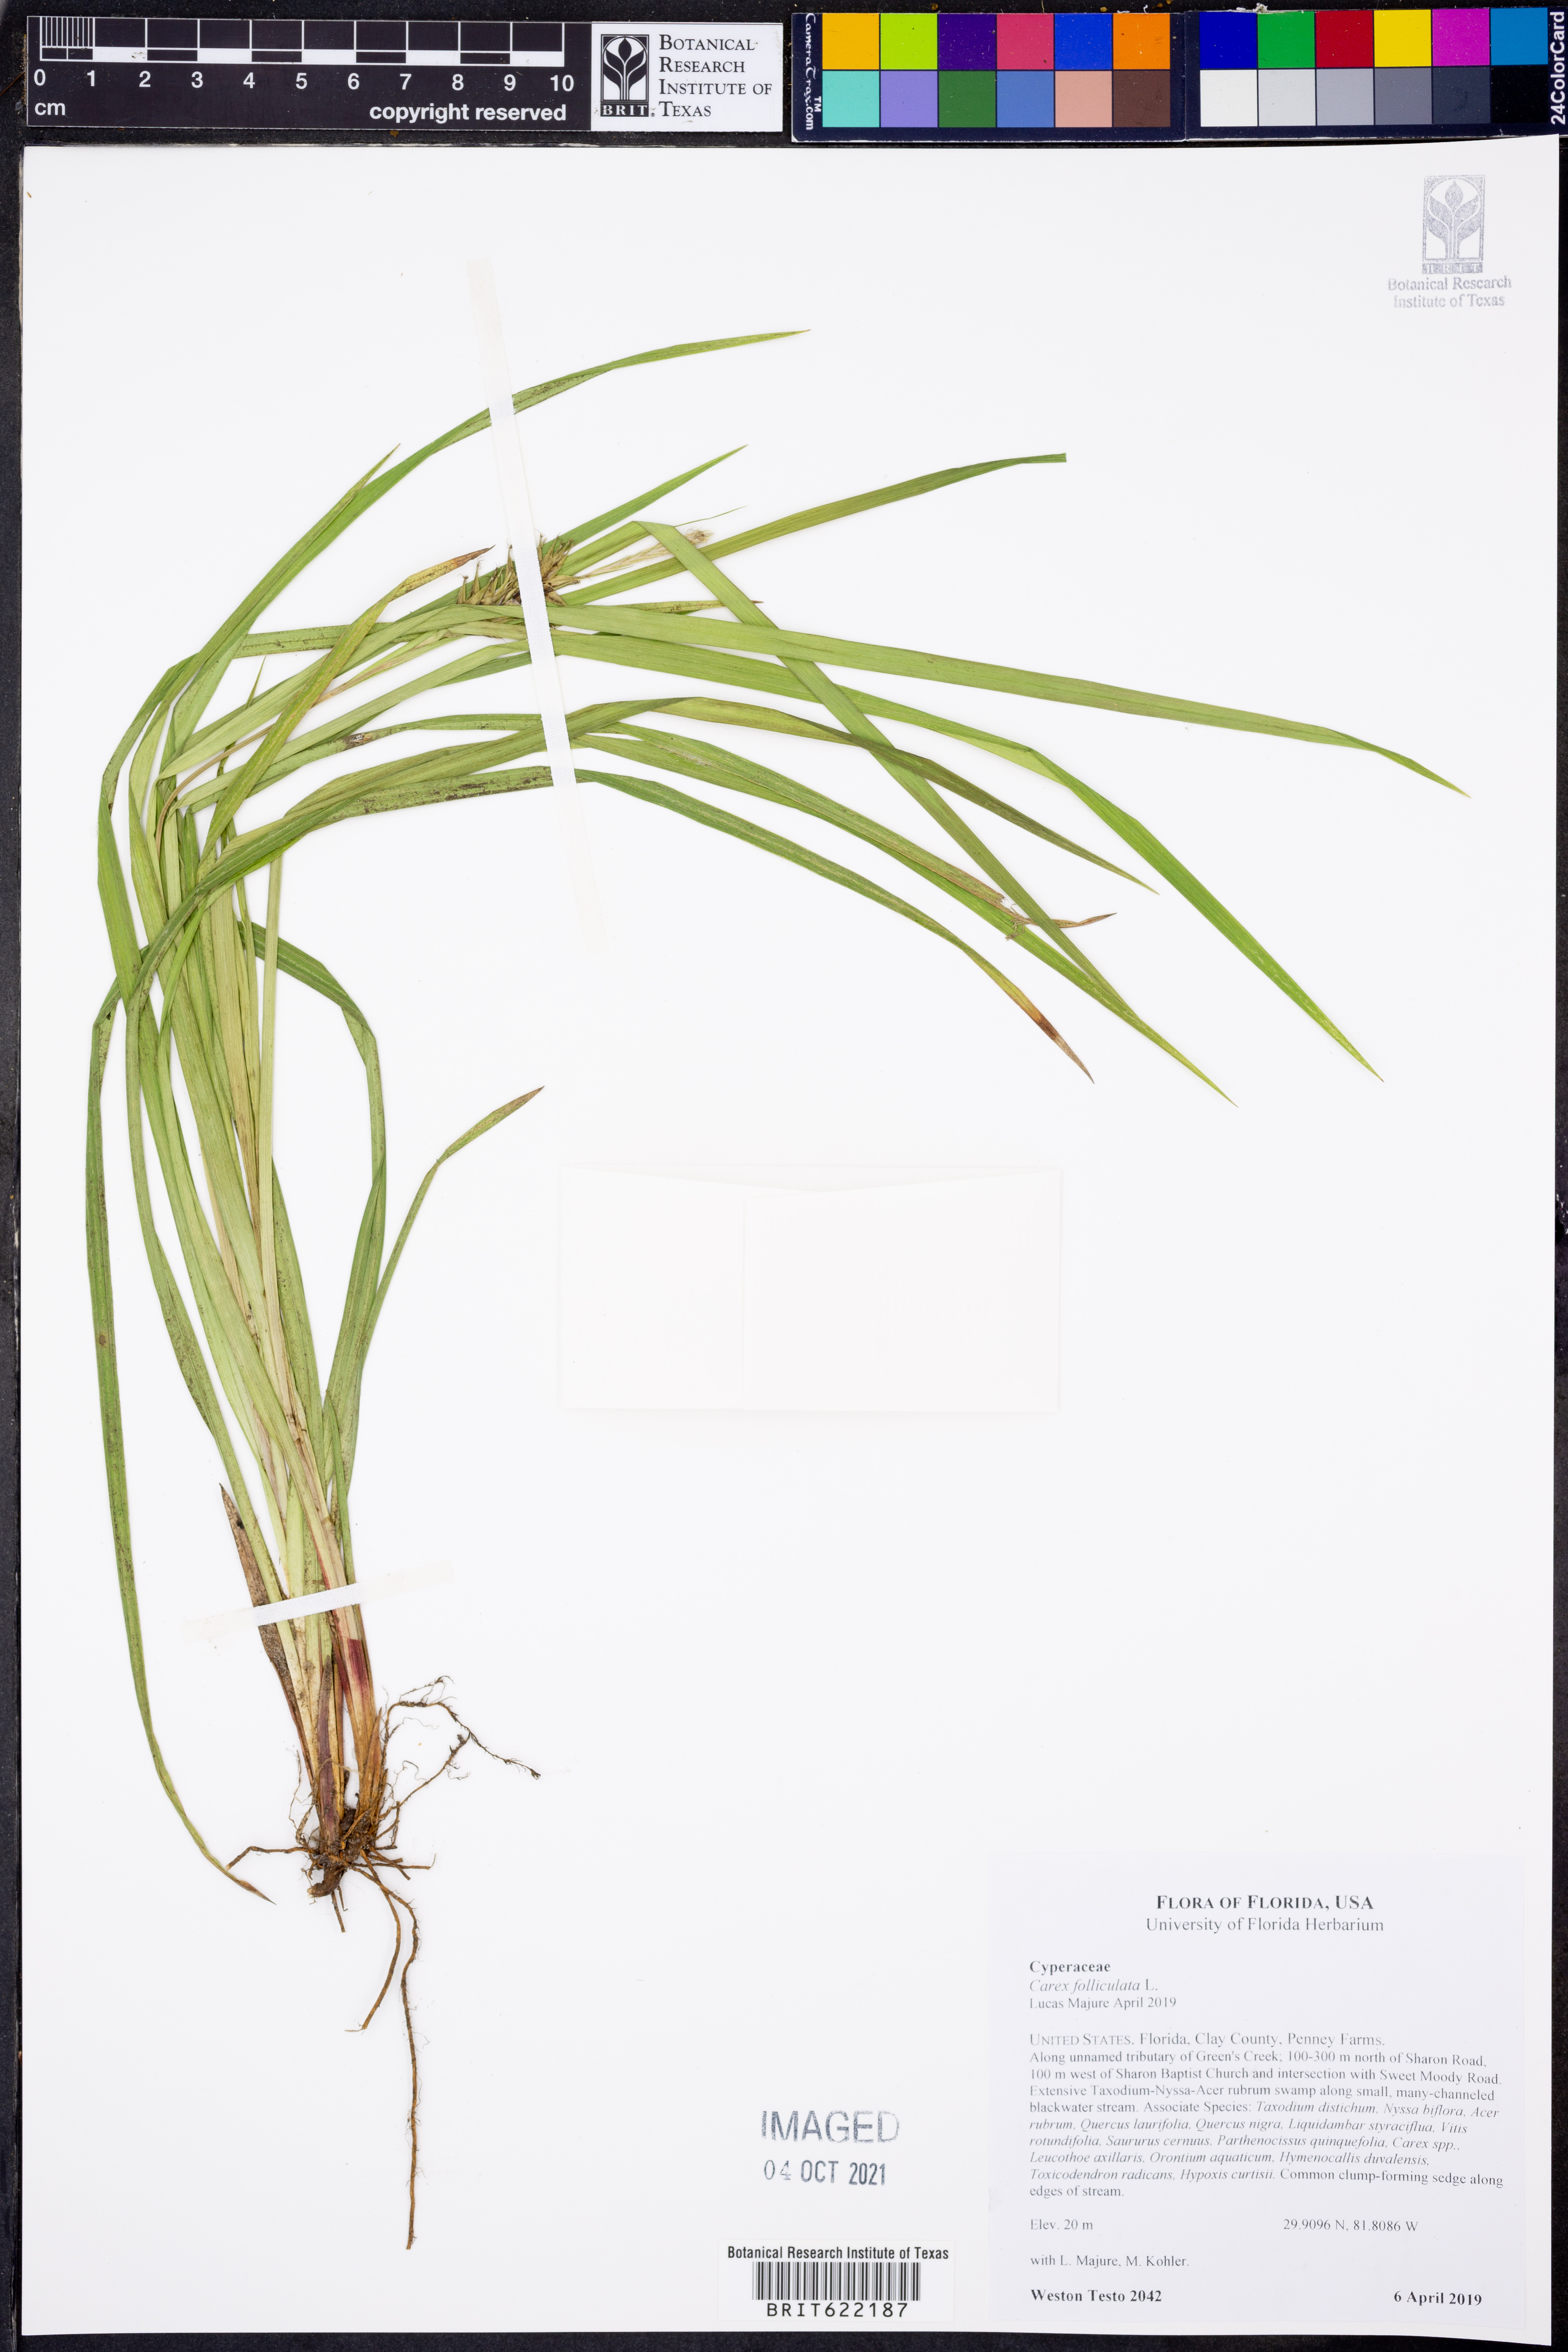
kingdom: Plantae
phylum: Tracheophyta
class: Liliopsida
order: Poales
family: Cyperaceae
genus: Carex
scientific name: Carex folliculata
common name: Northern long sedge
